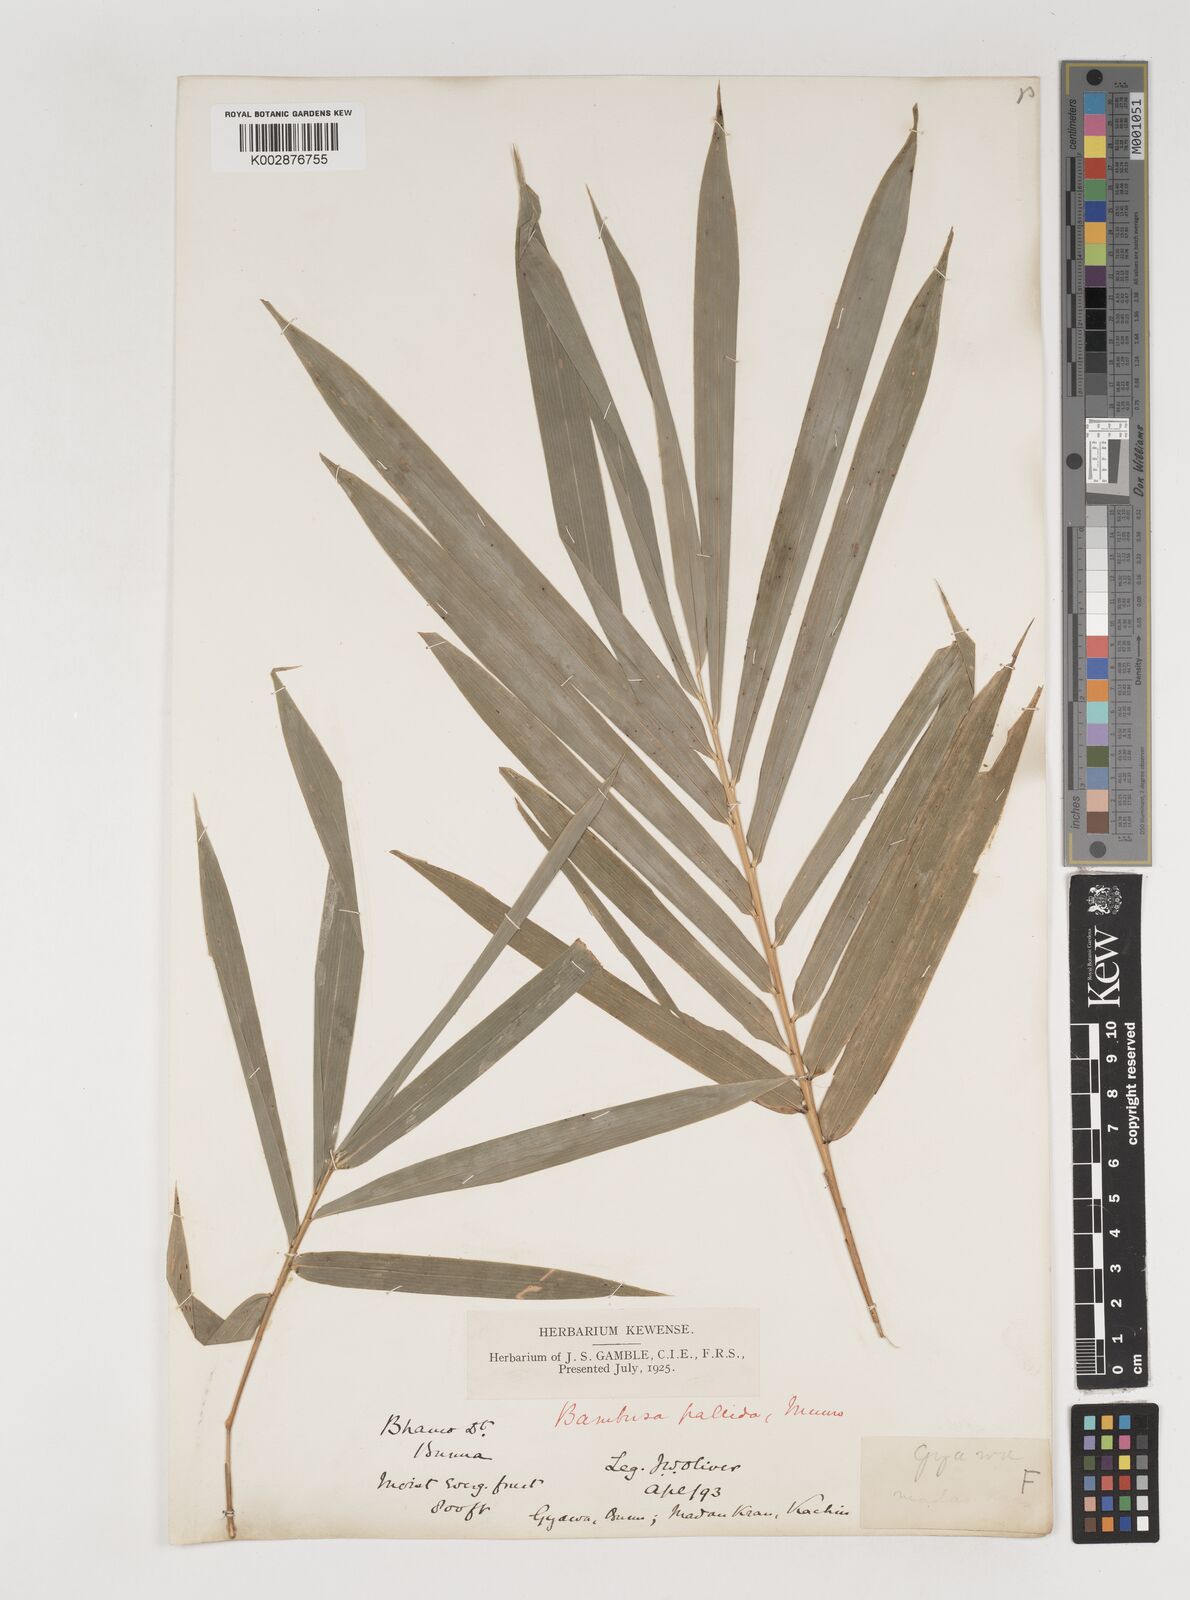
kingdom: Plantae
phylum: Tracheophyta
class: Liliopsida
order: Poales
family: Poaceae
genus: Bambusa
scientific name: Bambusa pallida
